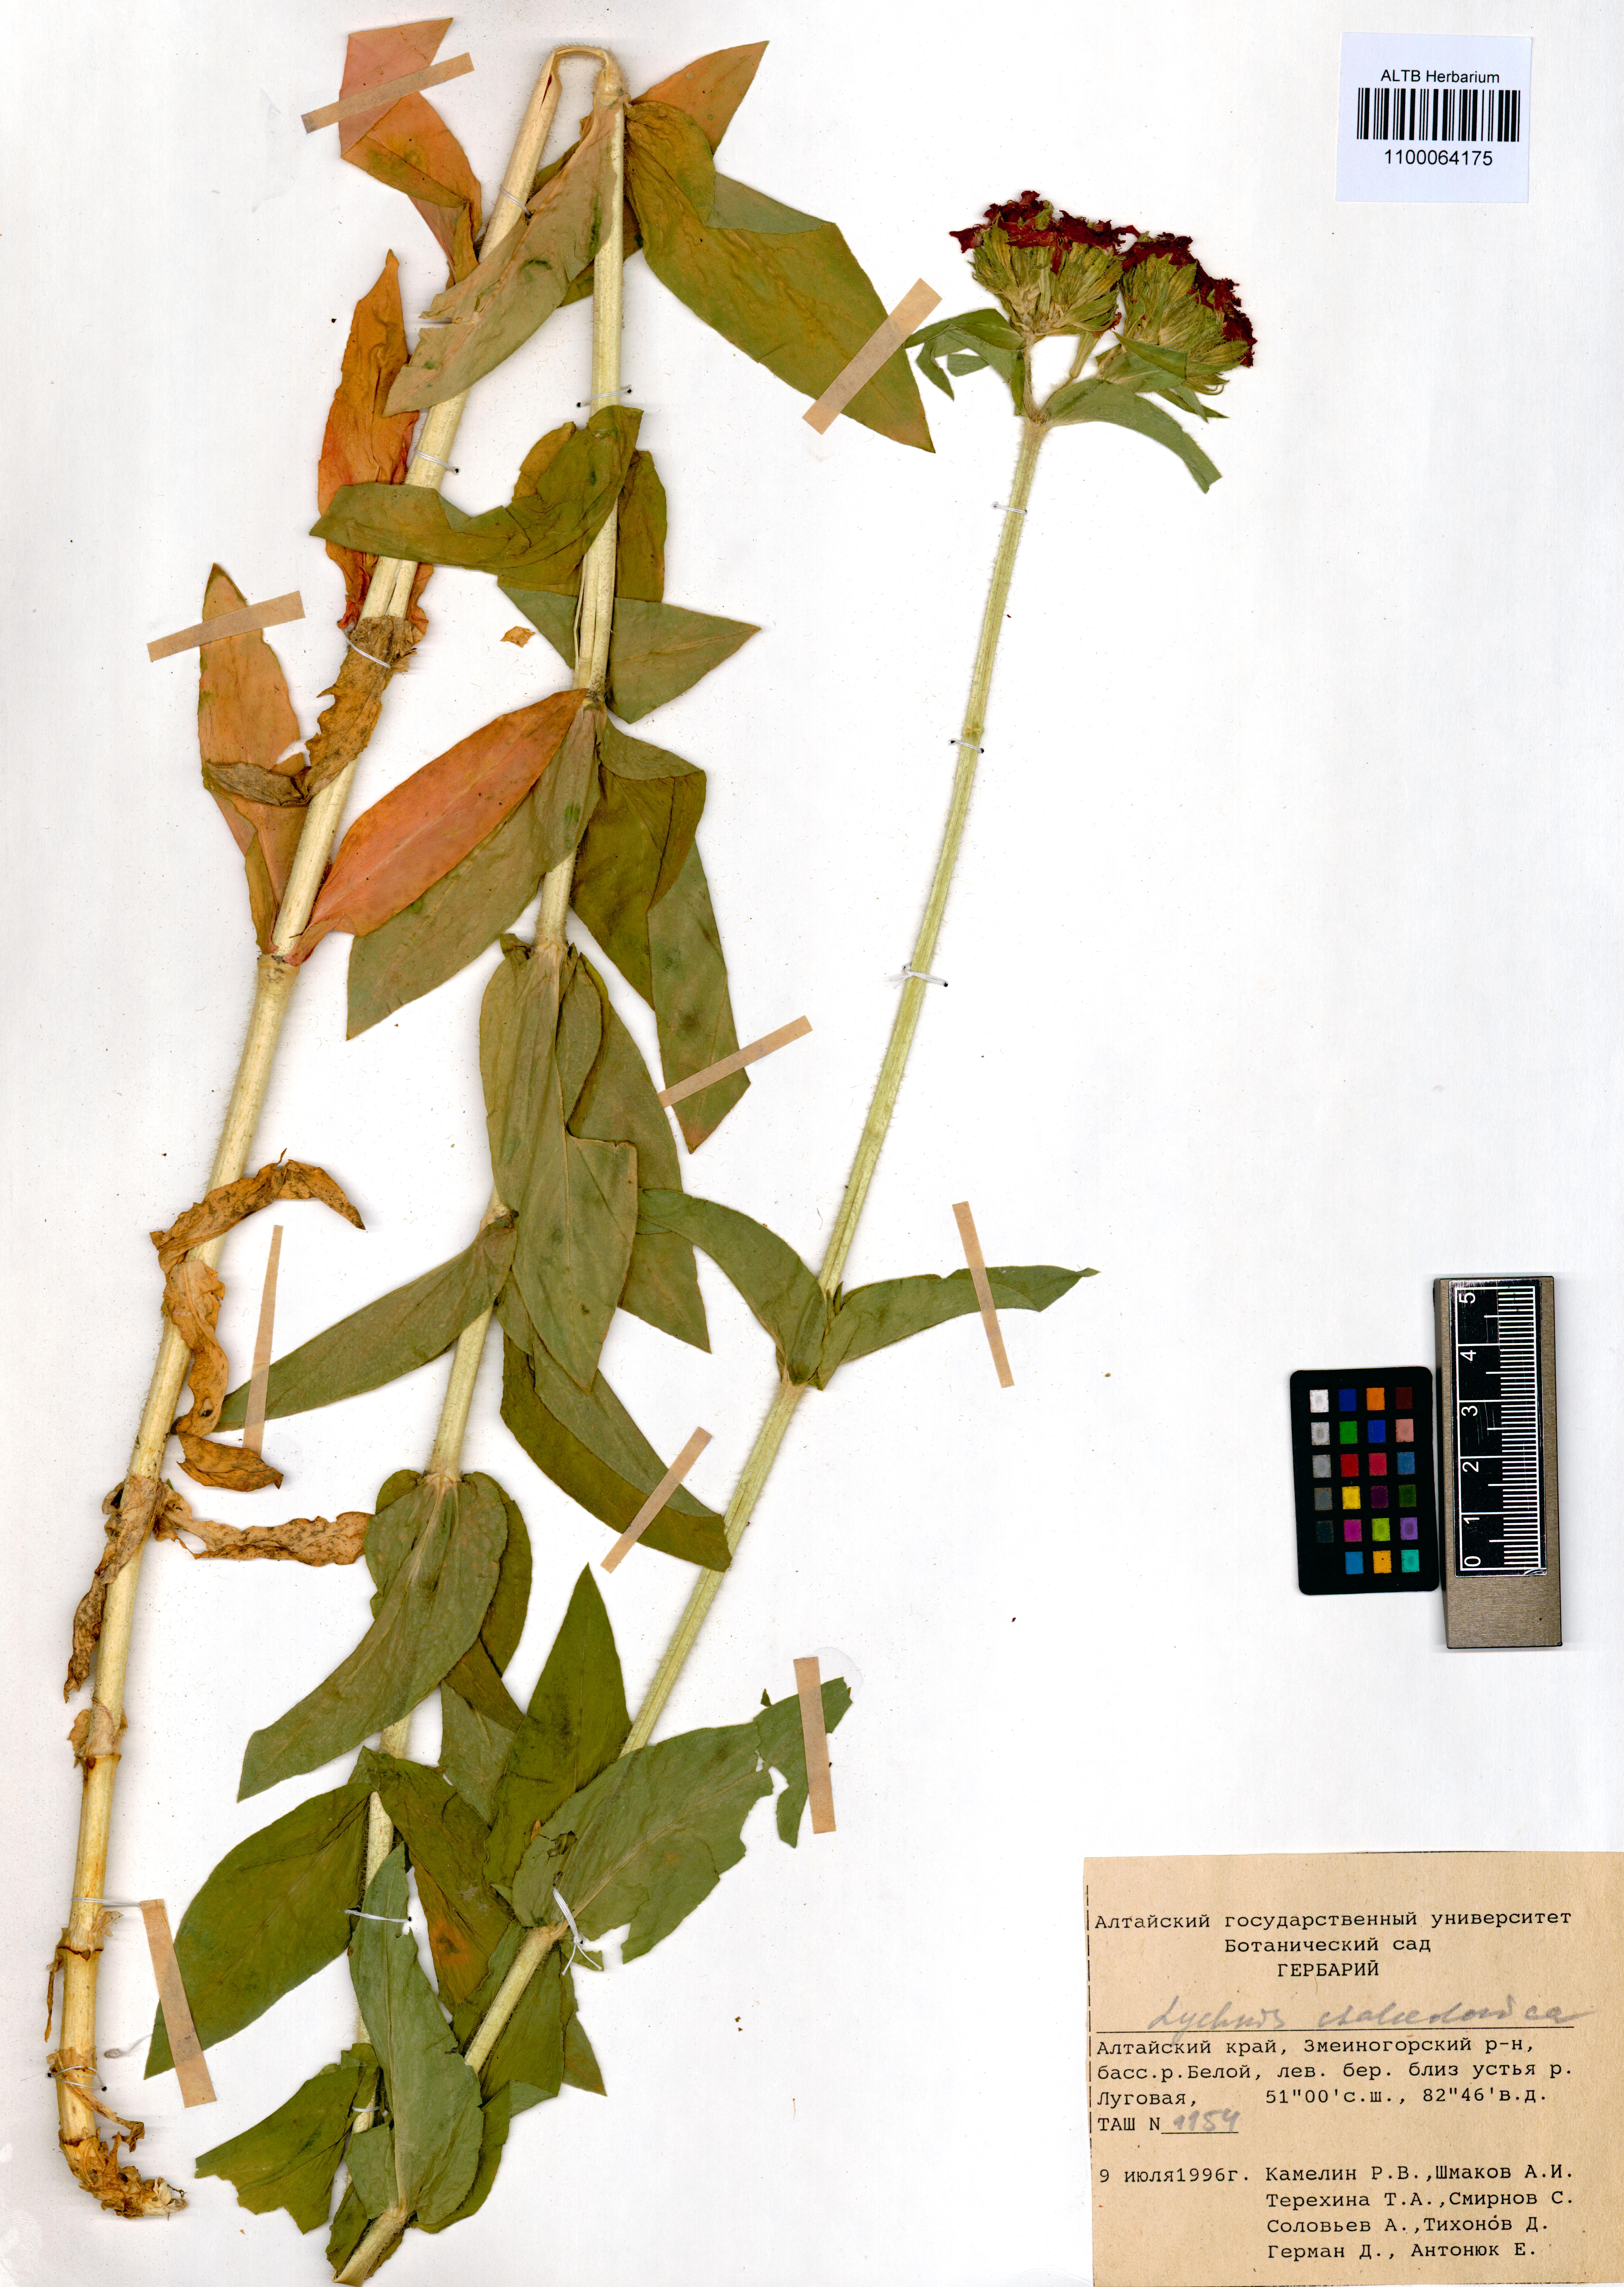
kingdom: Plantae
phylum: Tracheophyta
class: Magnoliopsida
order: Caryophyllales
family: Caryophyllaceae
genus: Silene
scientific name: Silene chalcedonica
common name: Maltese-cross
